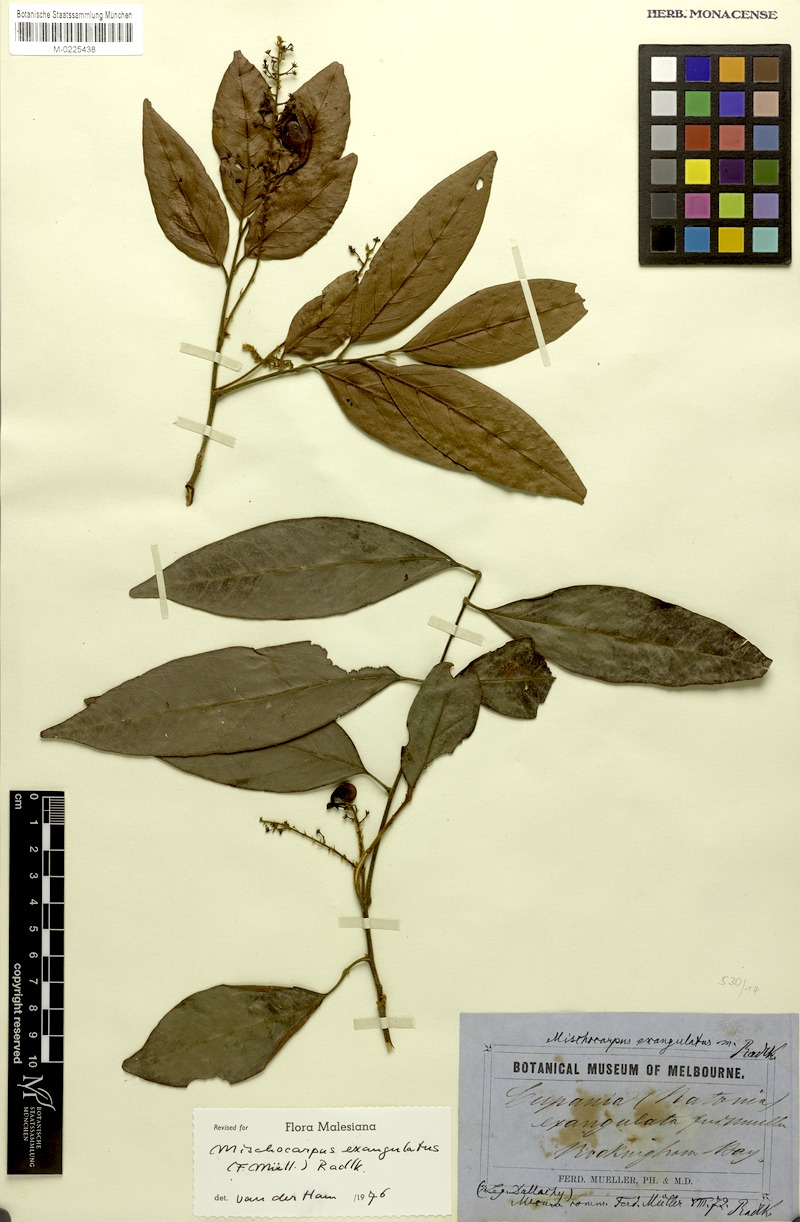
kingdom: Plantae
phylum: Tracheophyta
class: Magnoliopsida
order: Sapindales
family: Sapindaceae
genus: Mischocarpus
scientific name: Mischocarpus exangulatus
